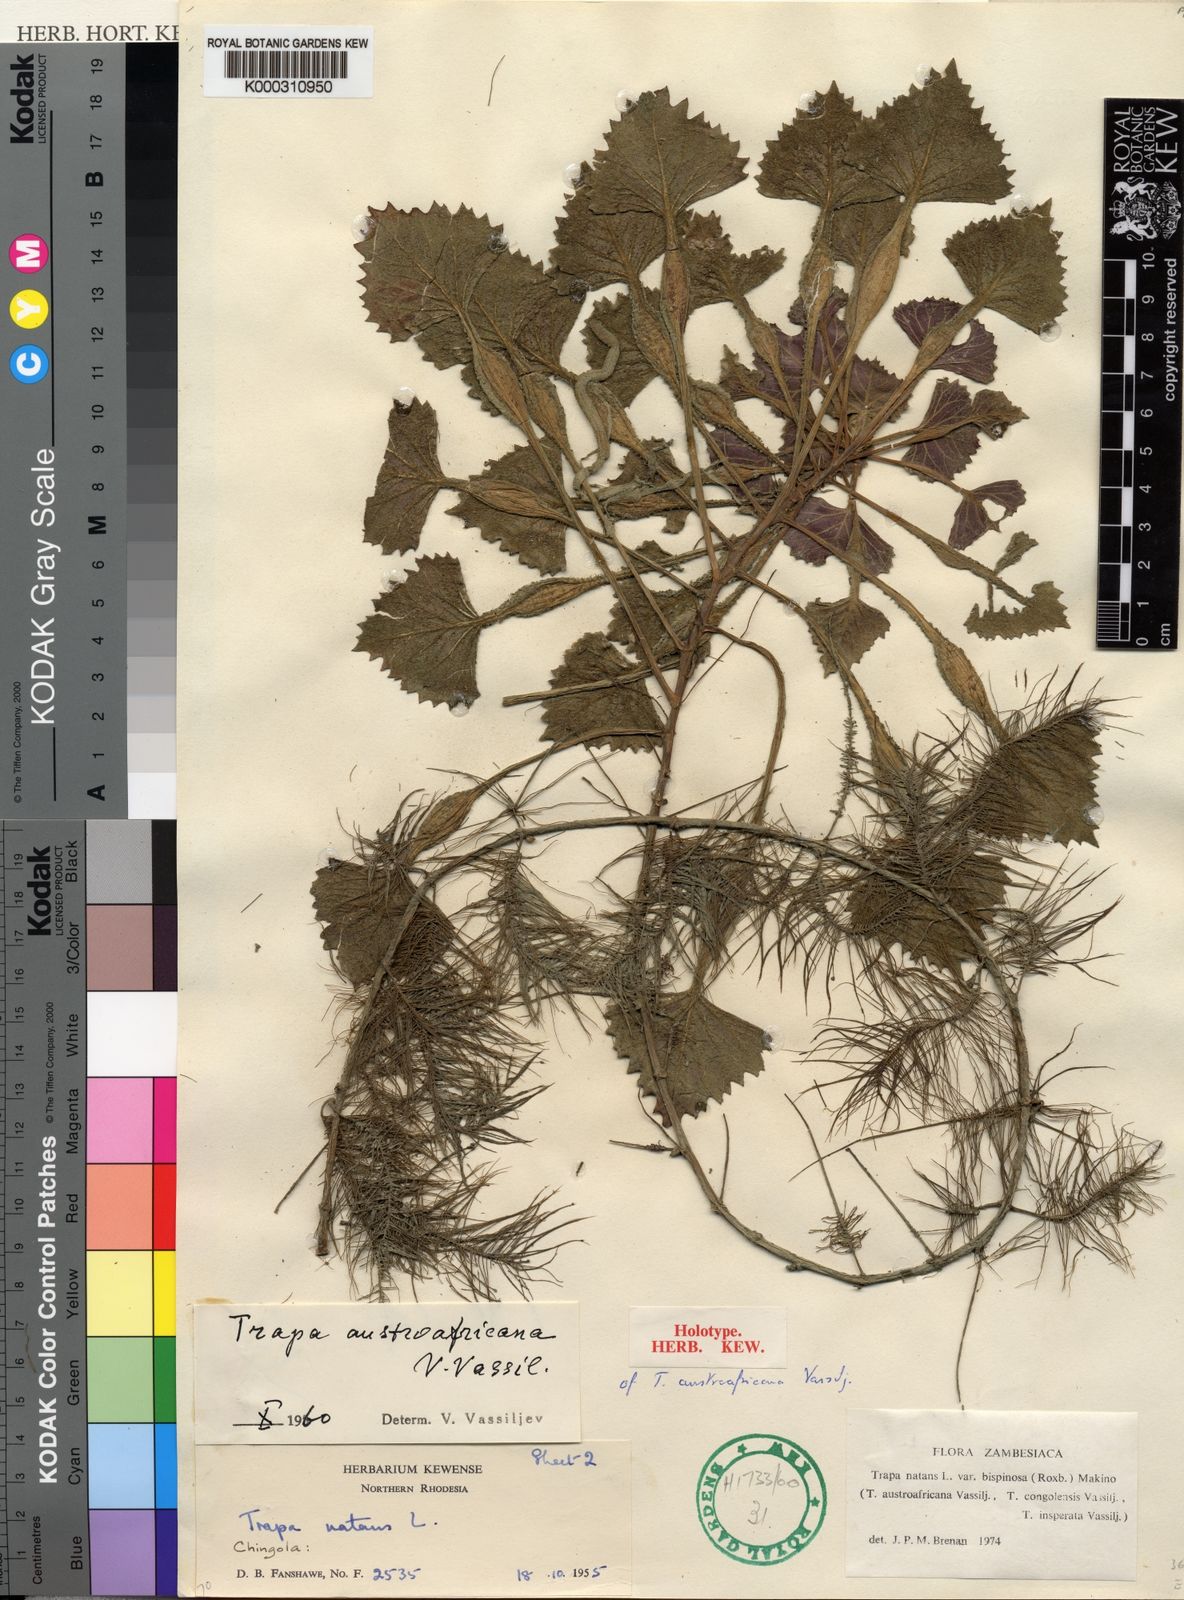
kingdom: Plantae
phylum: Tracheophyta
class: Magnoliopsida
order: Myrtales
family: Lythraceae
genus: Trapa
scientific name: Trapa natans
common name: Water chestnut
